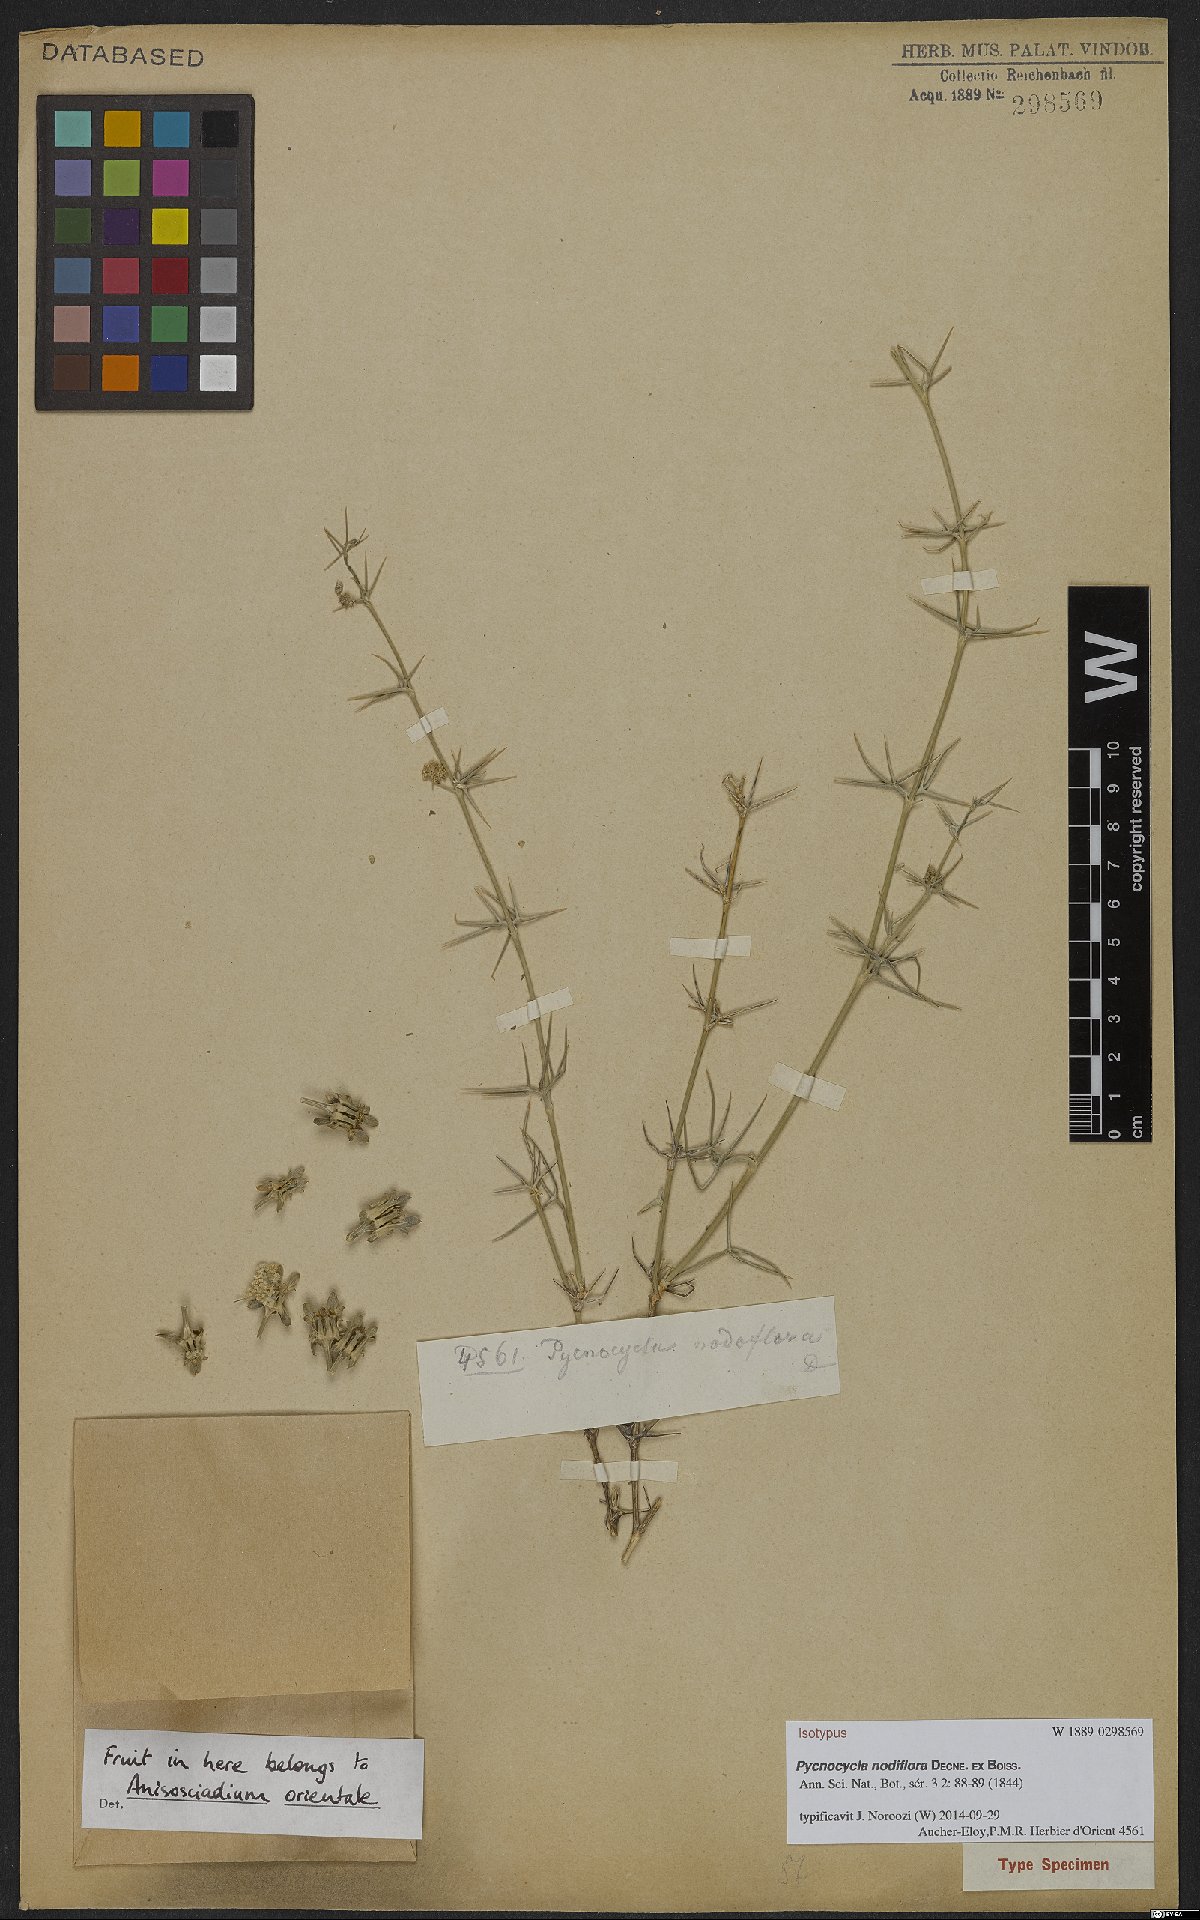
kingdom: Plantae
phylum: Tracheophyta
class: Magnoliopsida
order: Apiales
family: Apiaceae
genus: Pycnocycla
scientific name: Pycnocycla nodiflora
